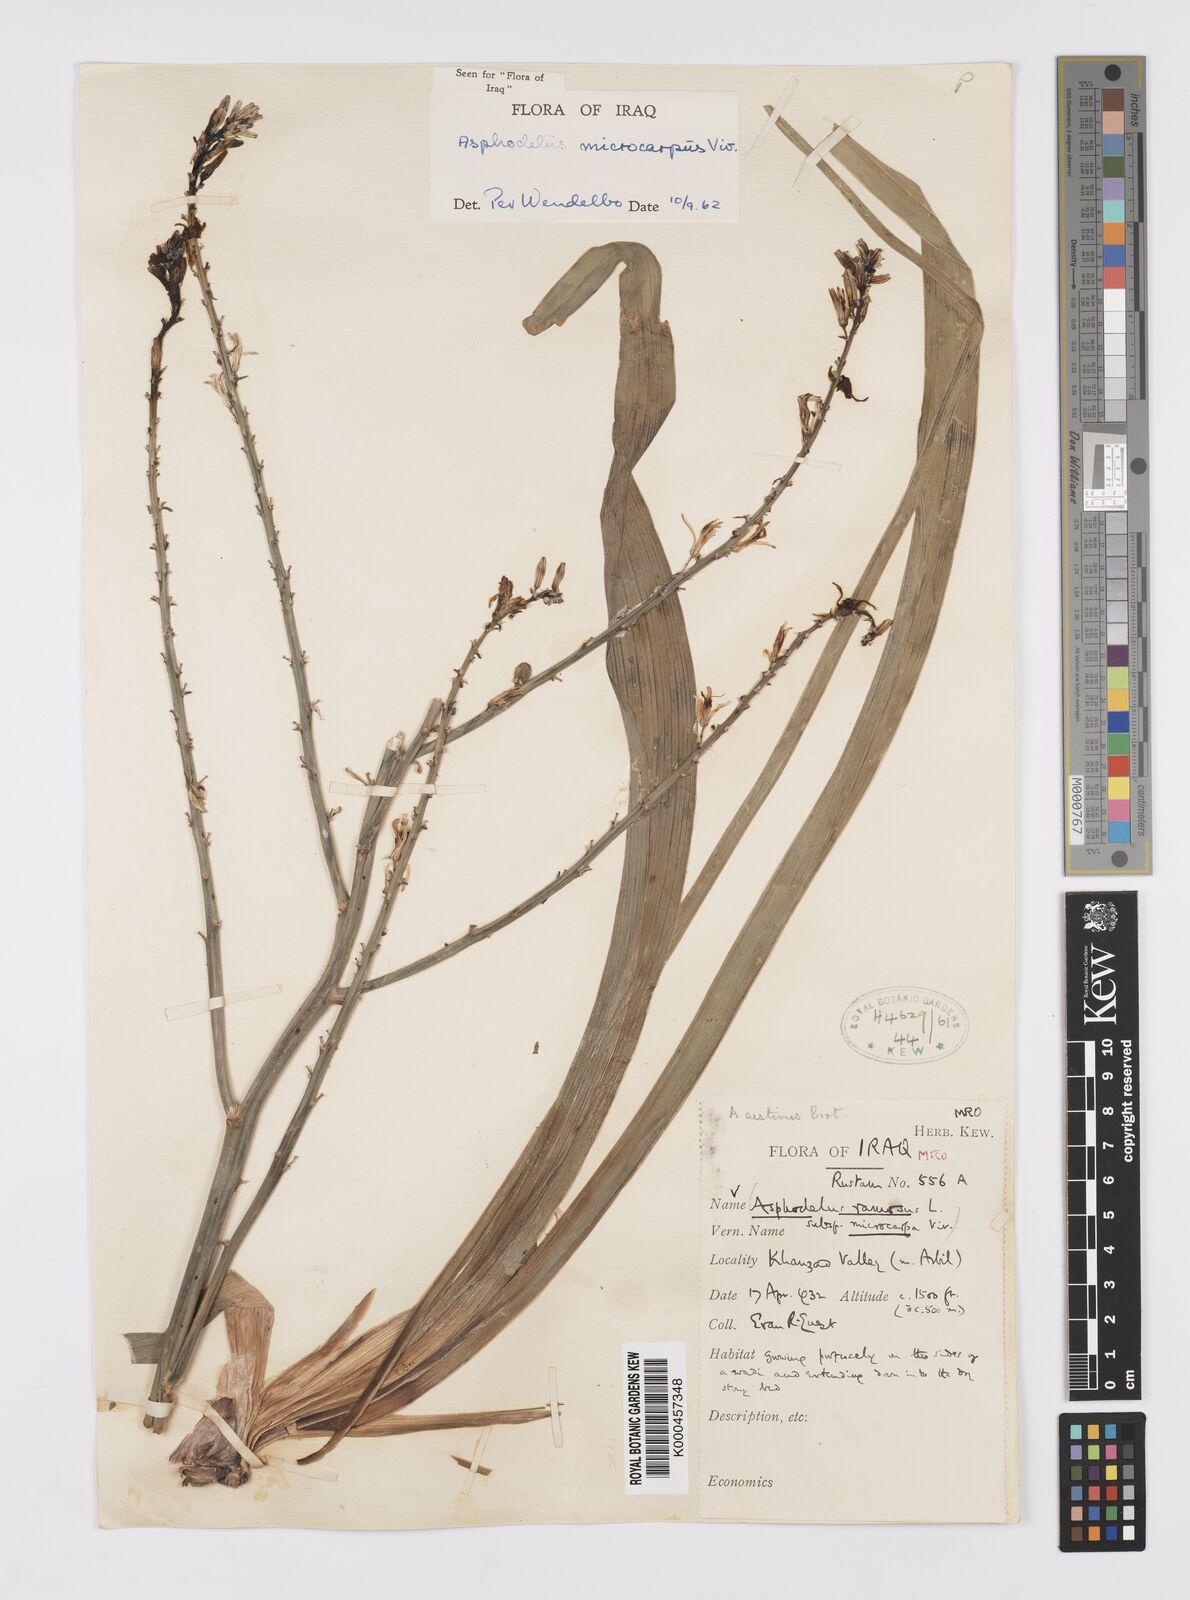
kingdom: Plantae
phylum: Tracheophyta
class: Liliopsida
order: Asparagales
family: Asphodelaceae
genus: Asphodelus
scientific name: Asphodelus aestivus
